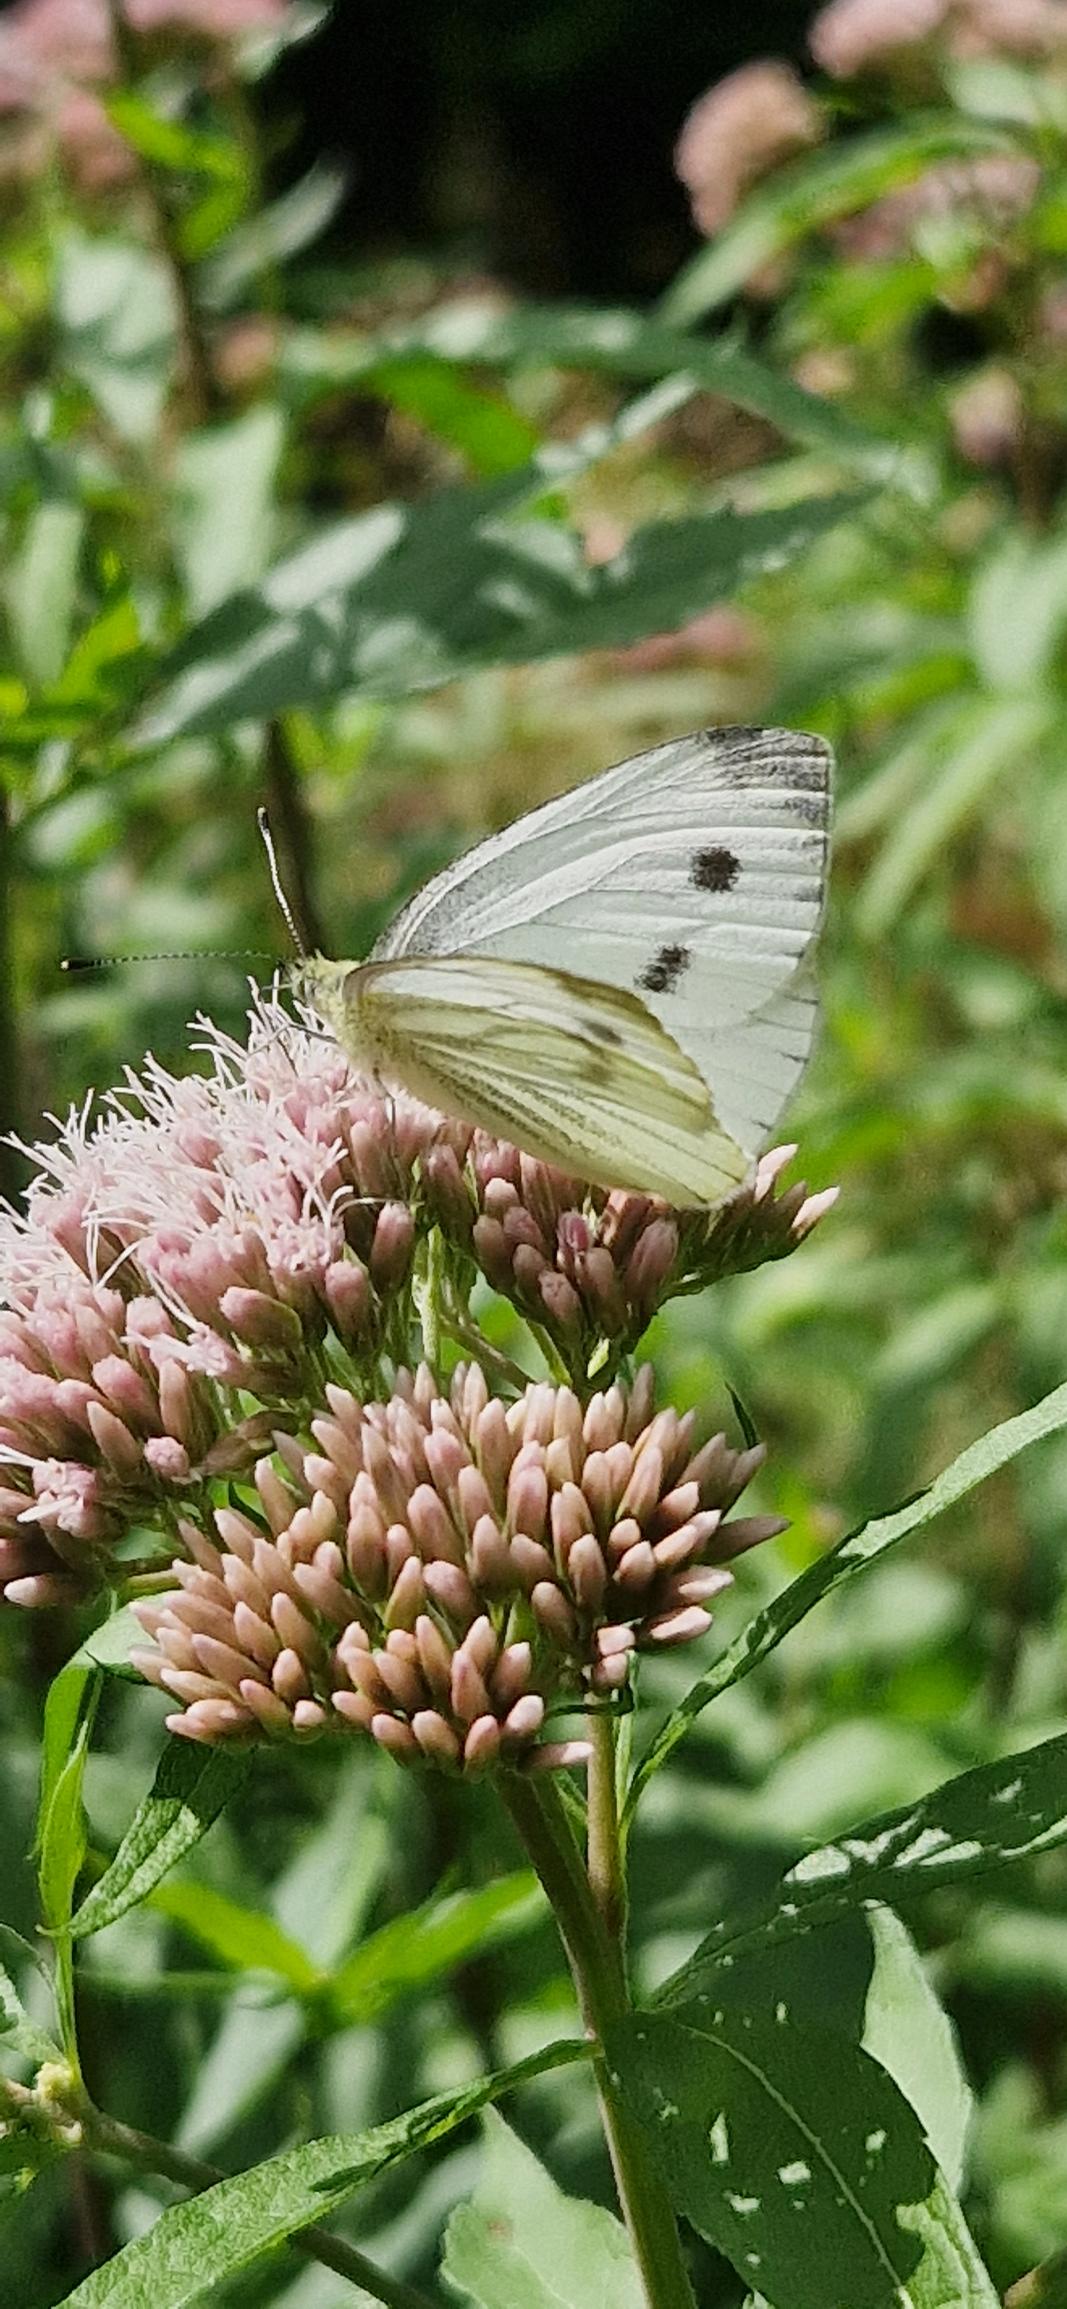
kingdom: Animalia
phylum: Arthropoda
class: Insecta
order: Lepidoptera
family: Pieridae
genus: Pieris
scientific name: Pieris napi
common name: Grønåret kålsommerfugl
